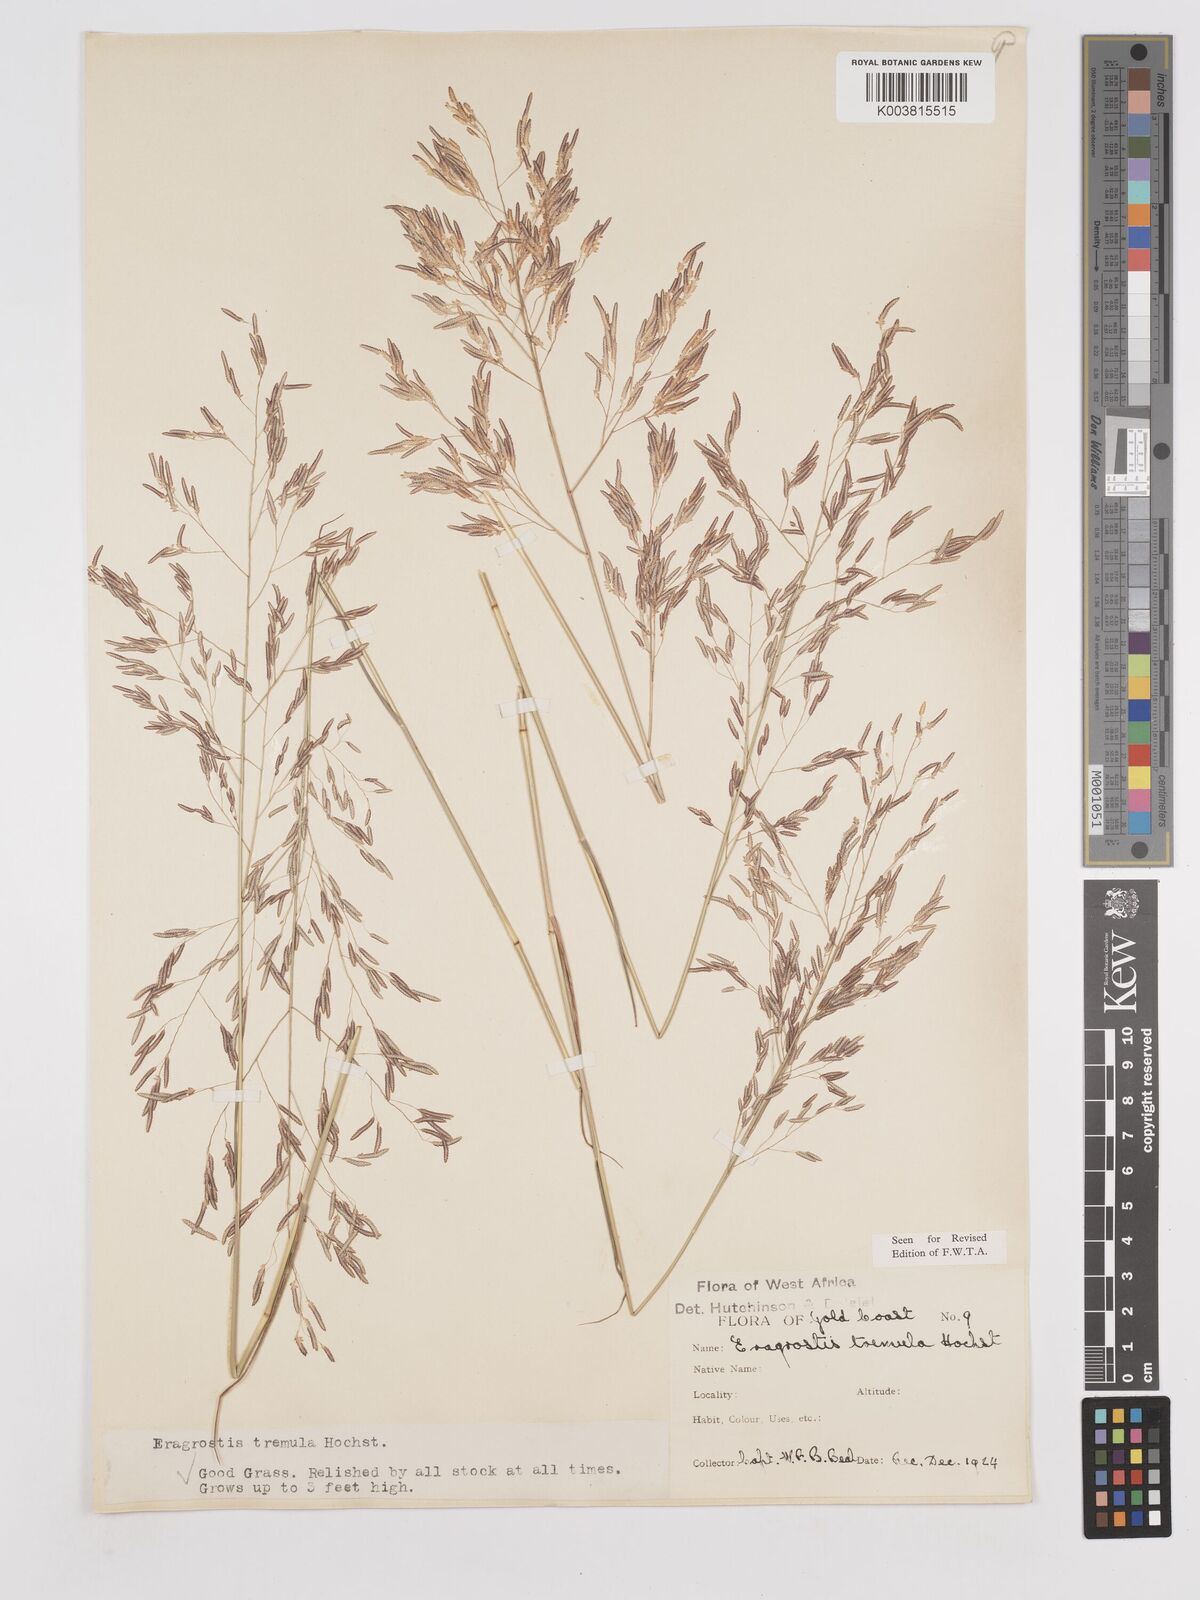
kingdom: Plantae
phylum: Tracheophyta
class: Liliopsida
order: Poales
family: Poaceae
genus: Eragrostis
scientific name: Eragrostis tremula
